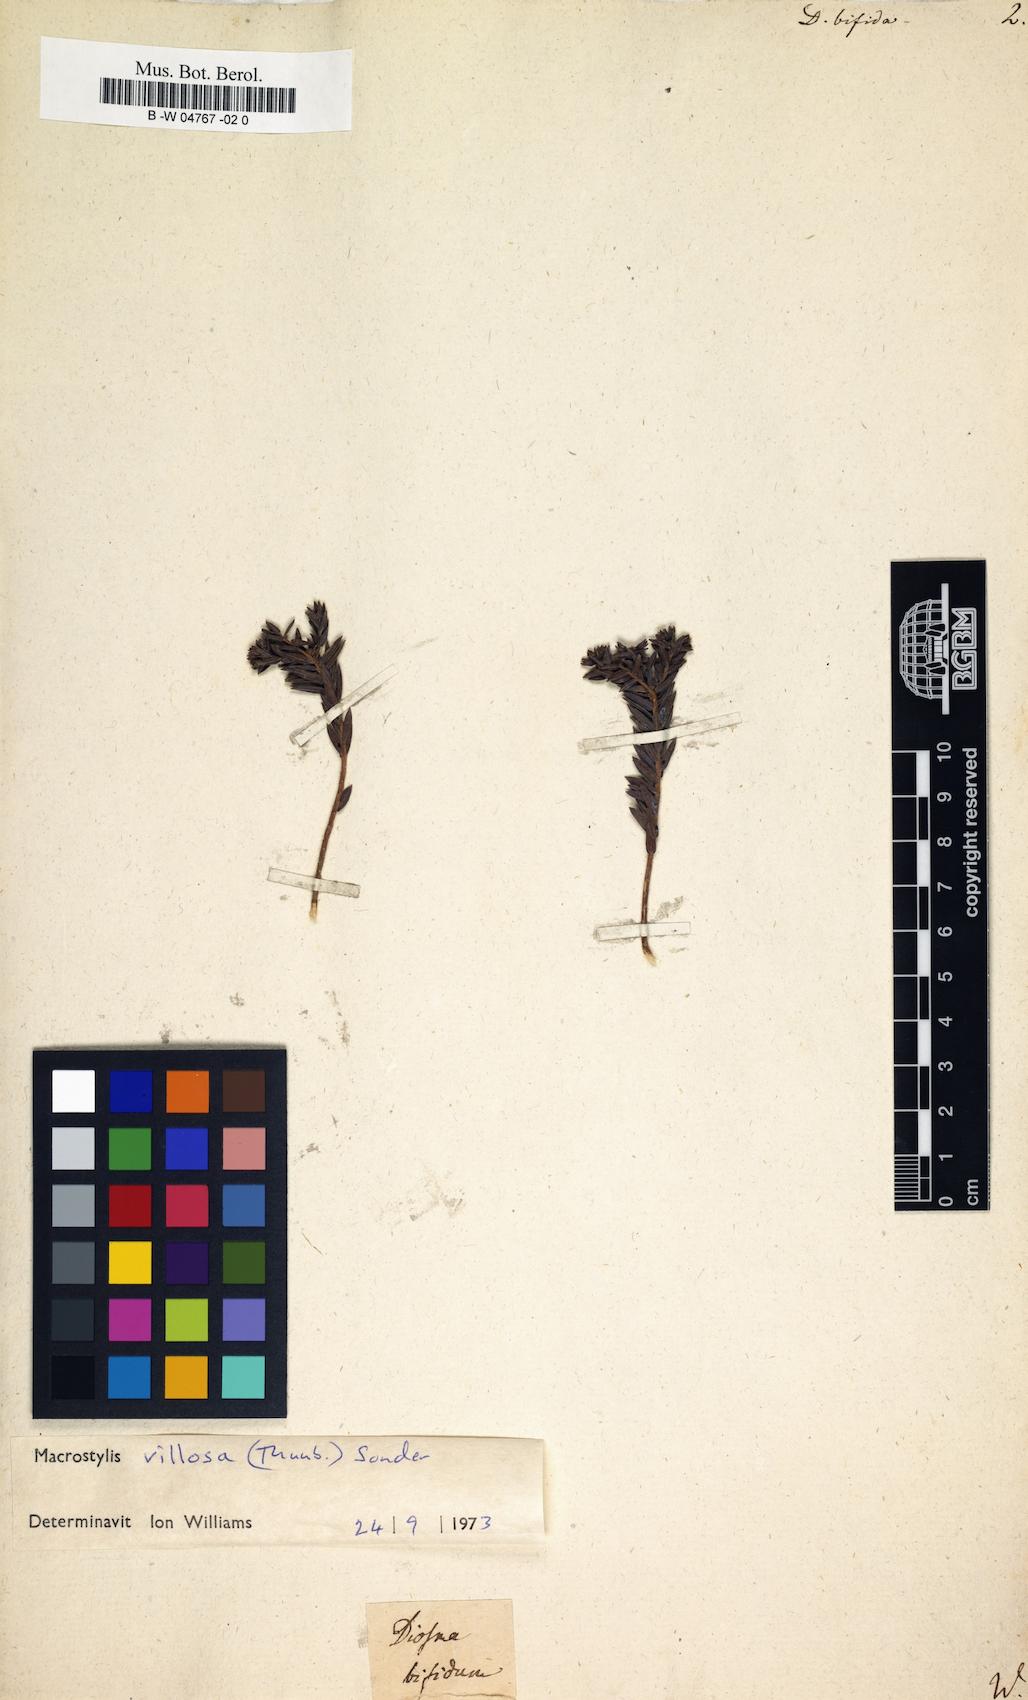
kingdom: Plantae
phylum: Tracheophyta
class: Magnoliopsida
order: Sapindales
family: Rutaceae
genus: Agathosma
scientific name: Agathosma bifida
